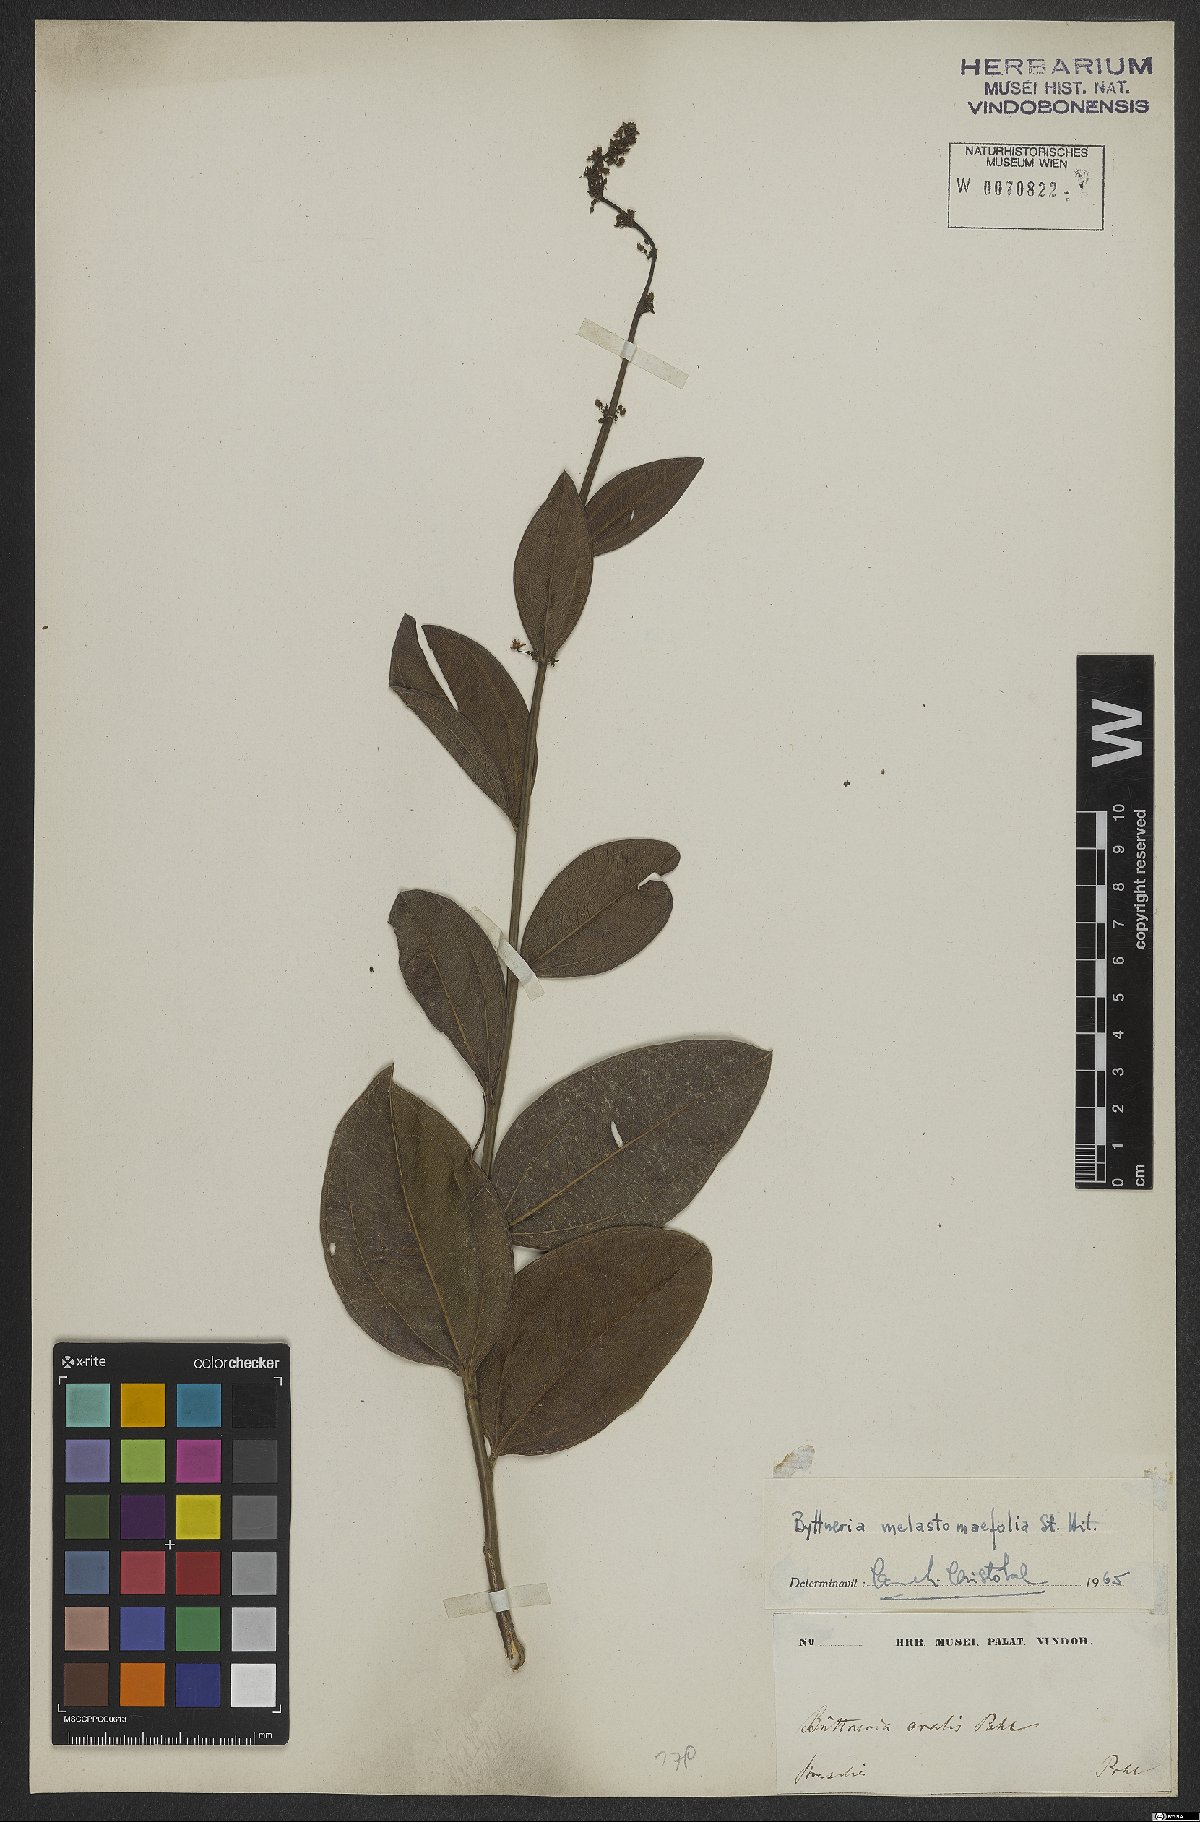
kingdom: Plantae
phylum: Tracheophyta
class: Magnoliopsida
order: Malvales
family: Malvaceae
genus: Byttneria
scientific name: Byttneria melastomatifolia
